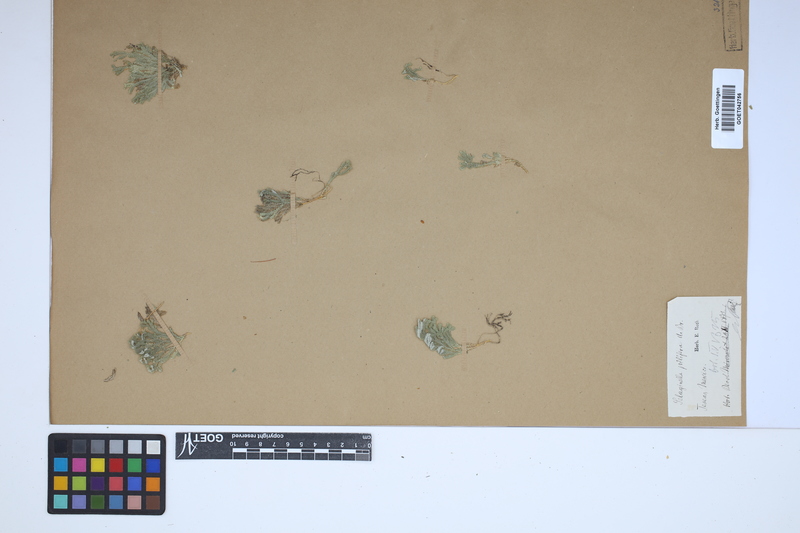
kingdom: Plantae
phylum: Tracheophyta
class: Lycopodiopsida
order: Selaginellales
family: Selaginellaceae
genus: Selaginella
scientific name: Selaginella pilifera
